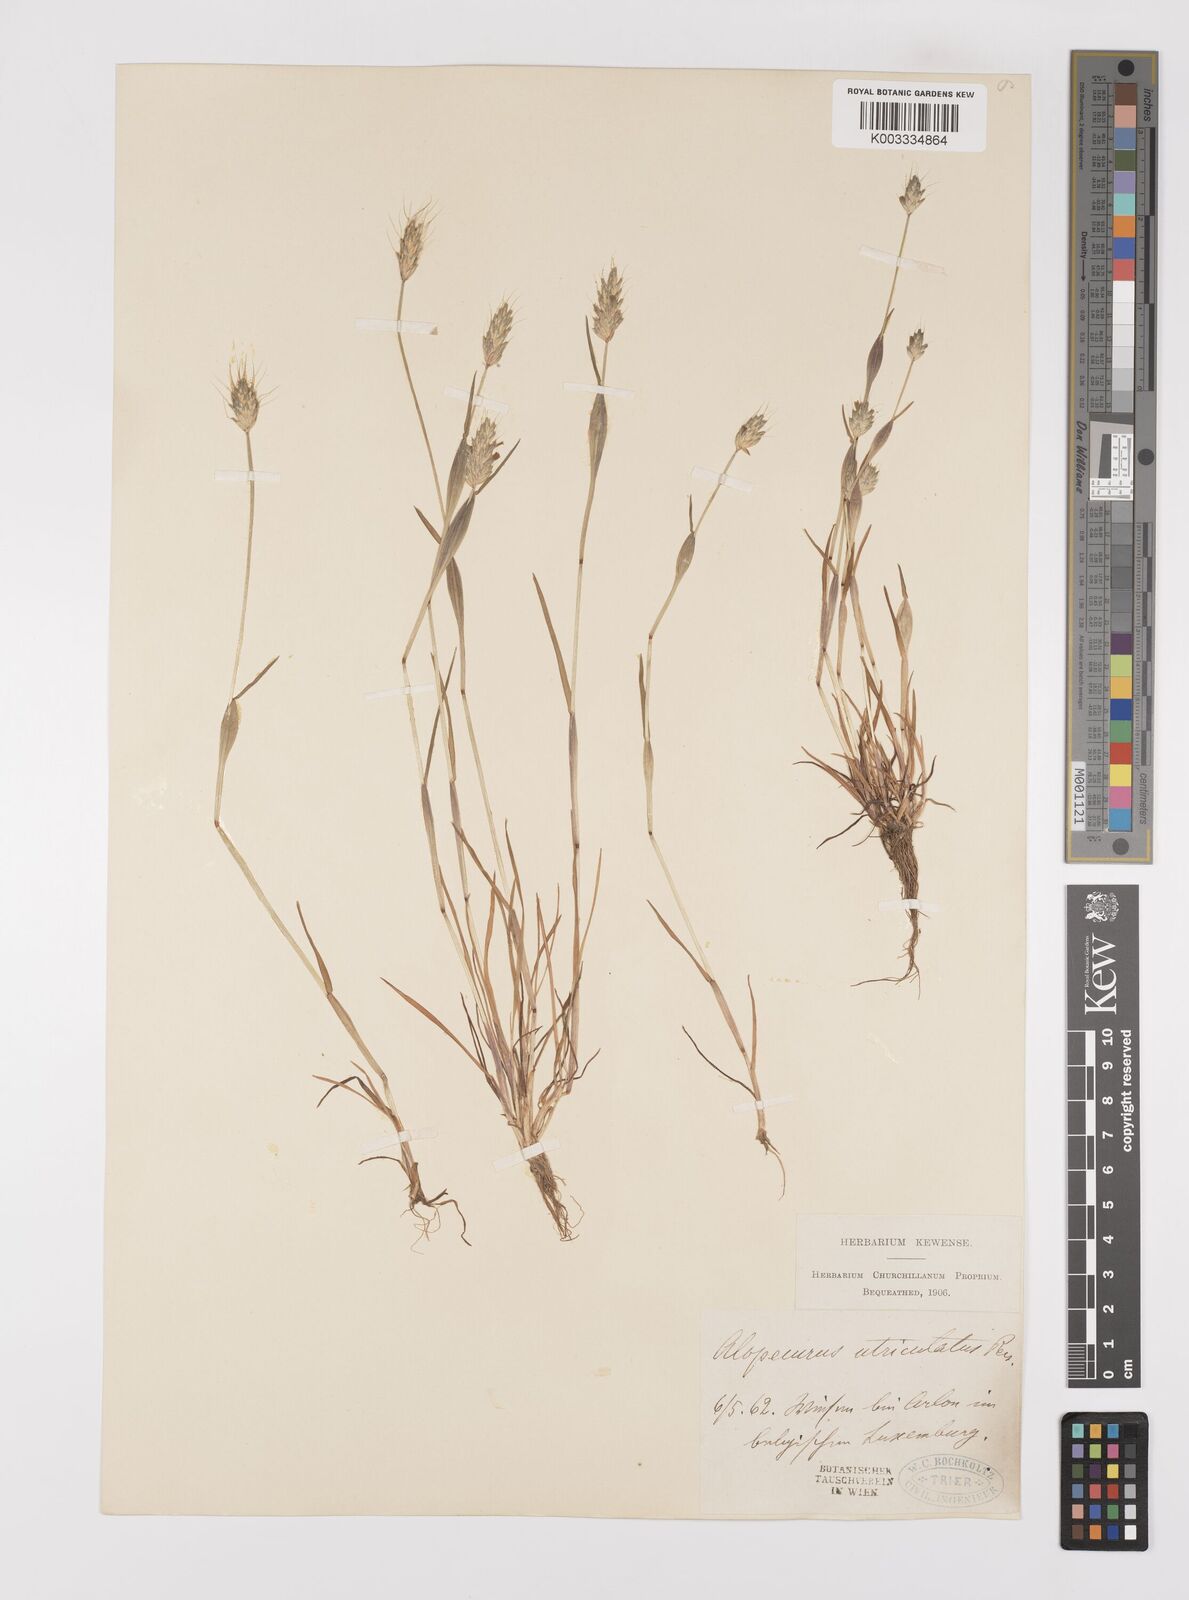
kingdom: Plantae
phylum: Tracheophyta
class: Liliopsida
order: Poales
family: Poaceae
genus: Alopecurus
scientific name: Alopecurus rendlei
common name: Rendle's meadow foxtail
